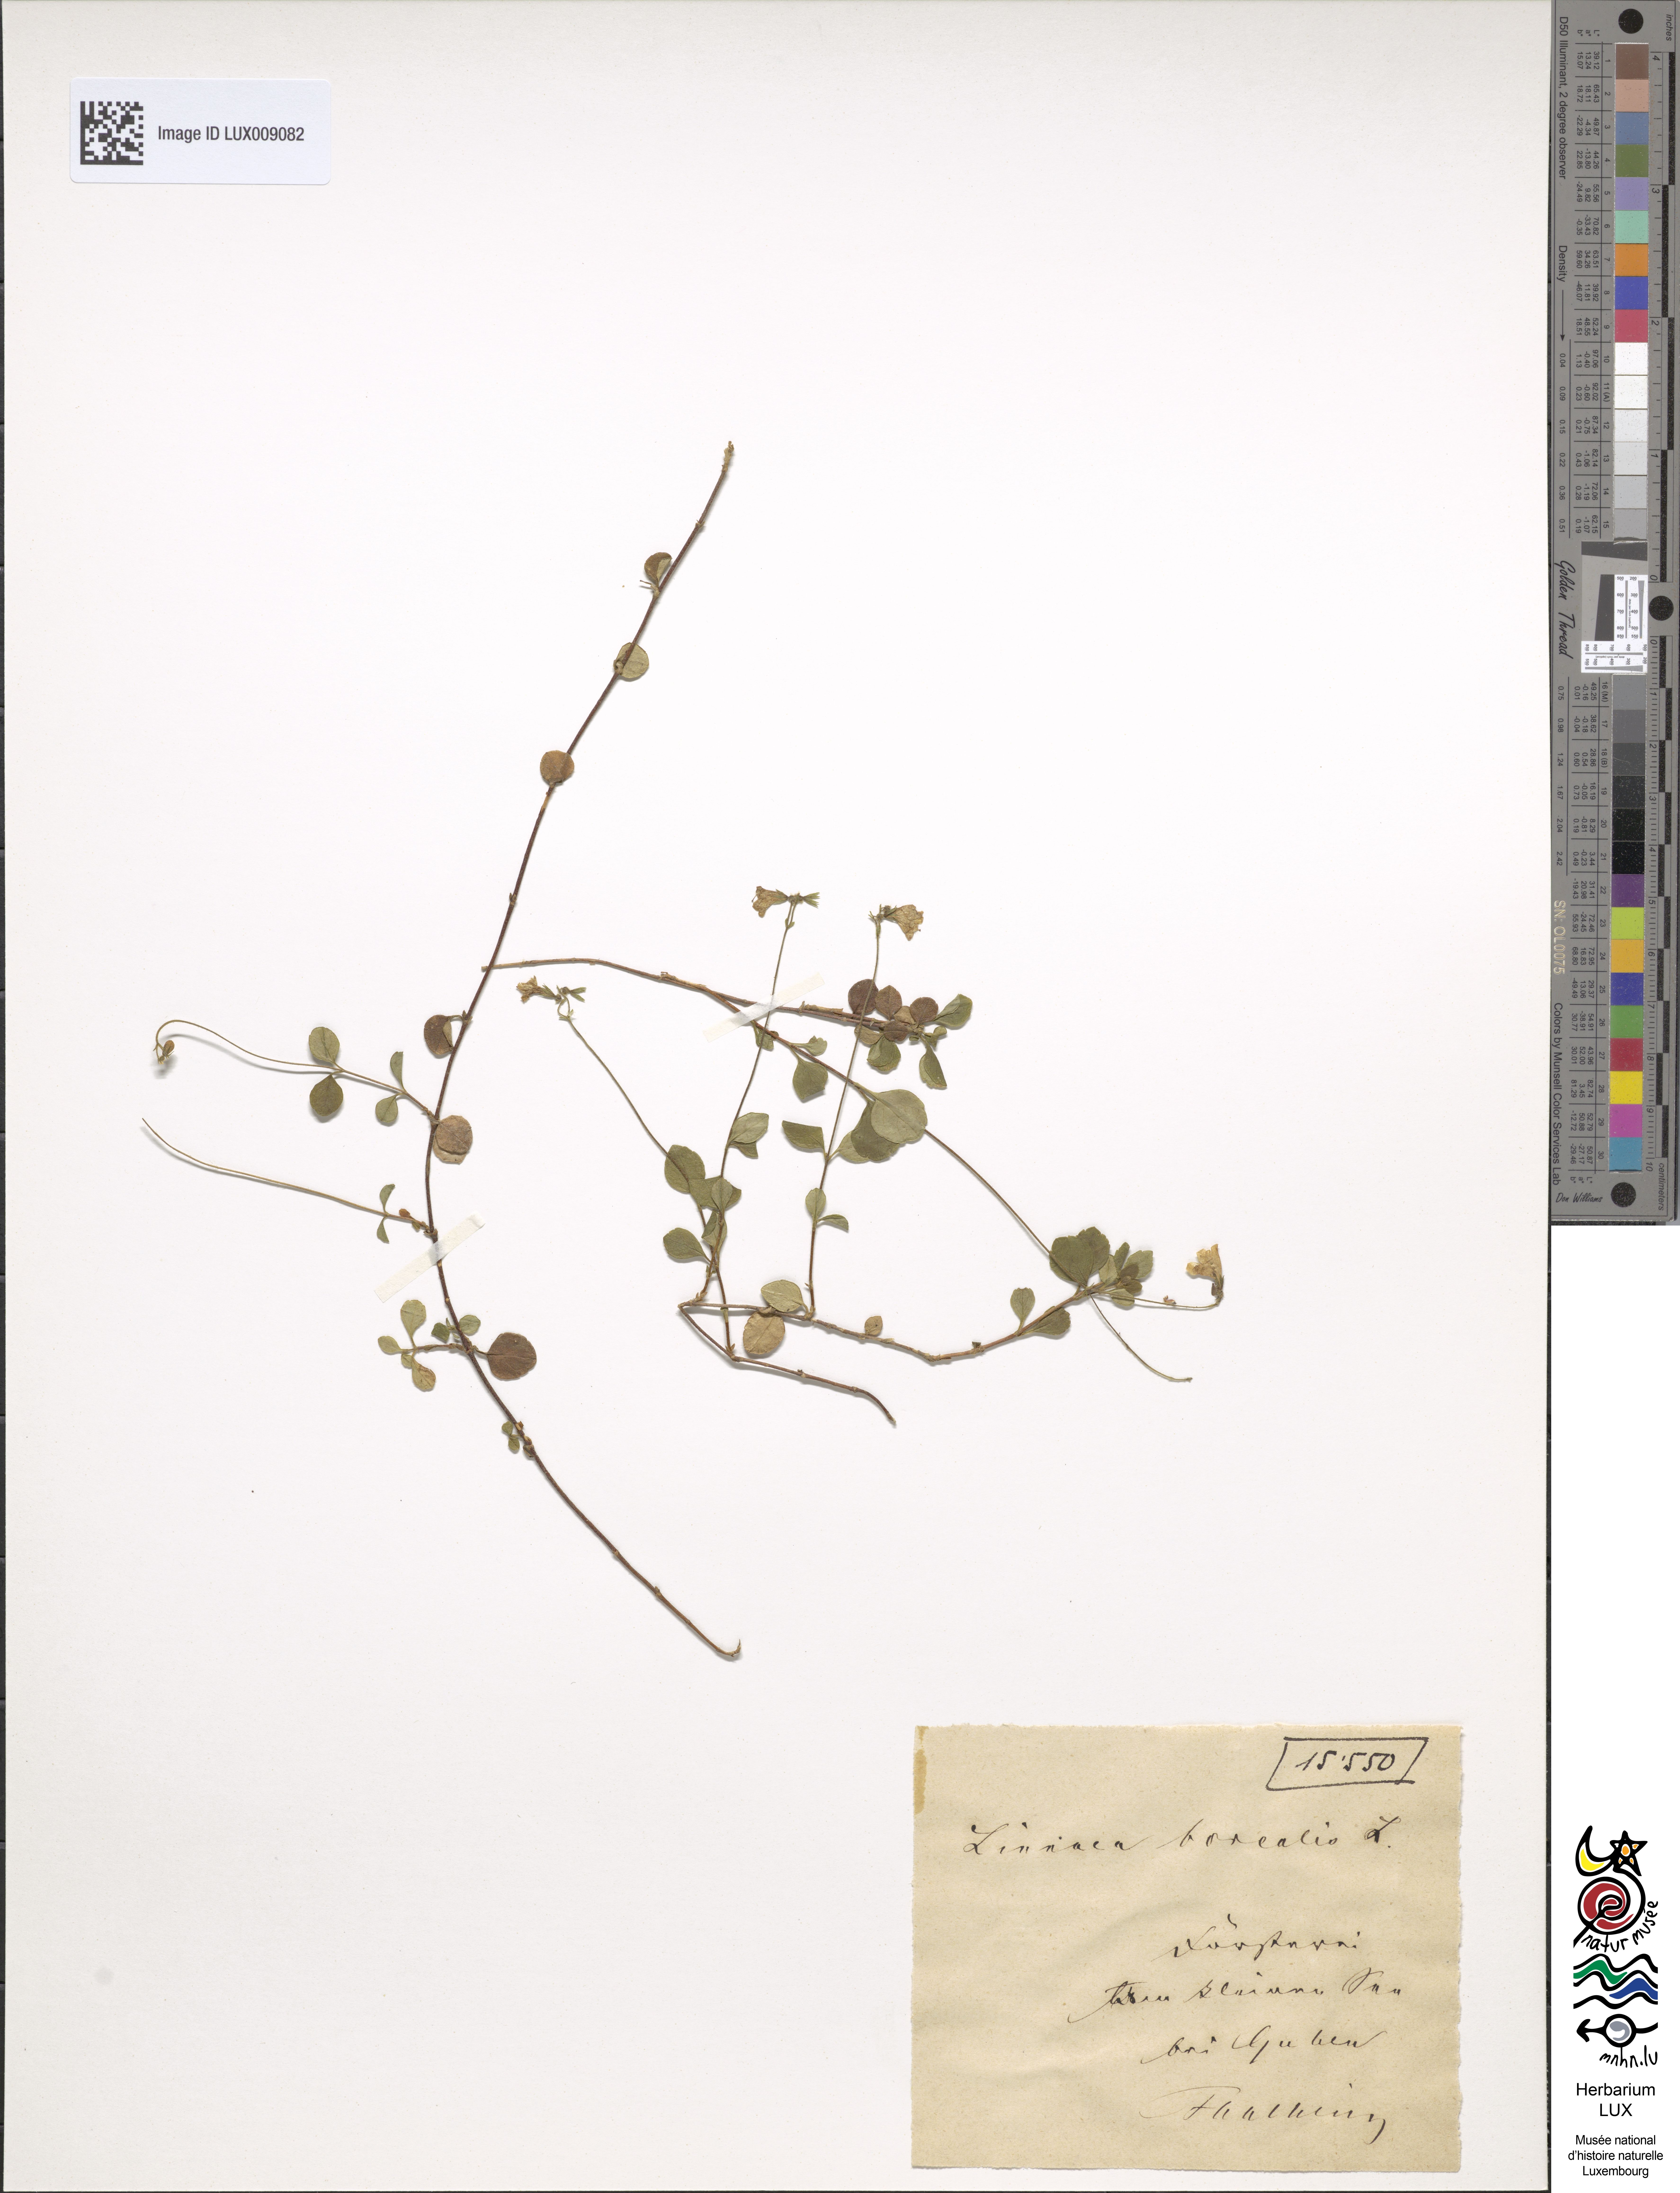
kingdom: Plantae
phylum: Tracheophyta
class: Magnoliopsida
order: Dipsacales
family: Caprifoliaceae
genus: Linnaea
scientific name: Linnaea borealis
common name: Twinflower
